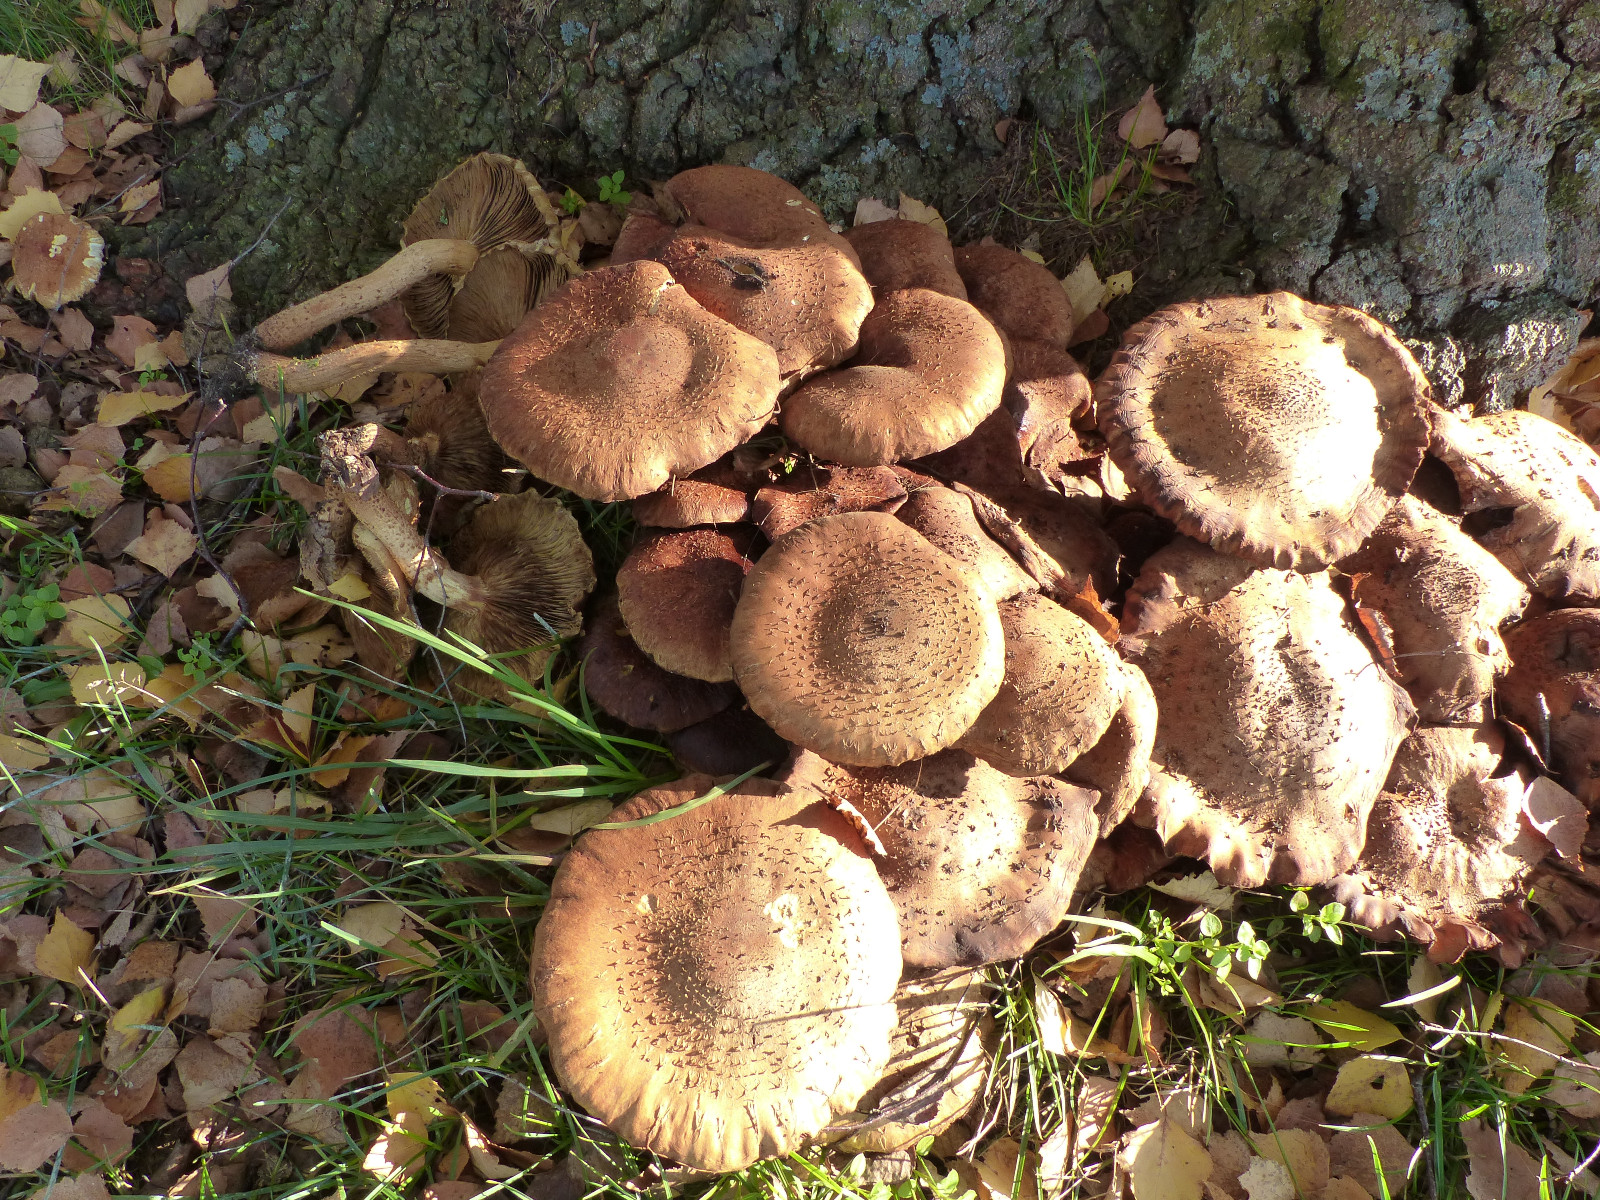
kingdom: Fungi
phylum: Basidiomycota
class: Agaricomycetes
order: Agaricales
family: Strophariaceae
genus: Pholiota
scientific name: Pholiota squarrosa
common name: krumskællet skælhat
